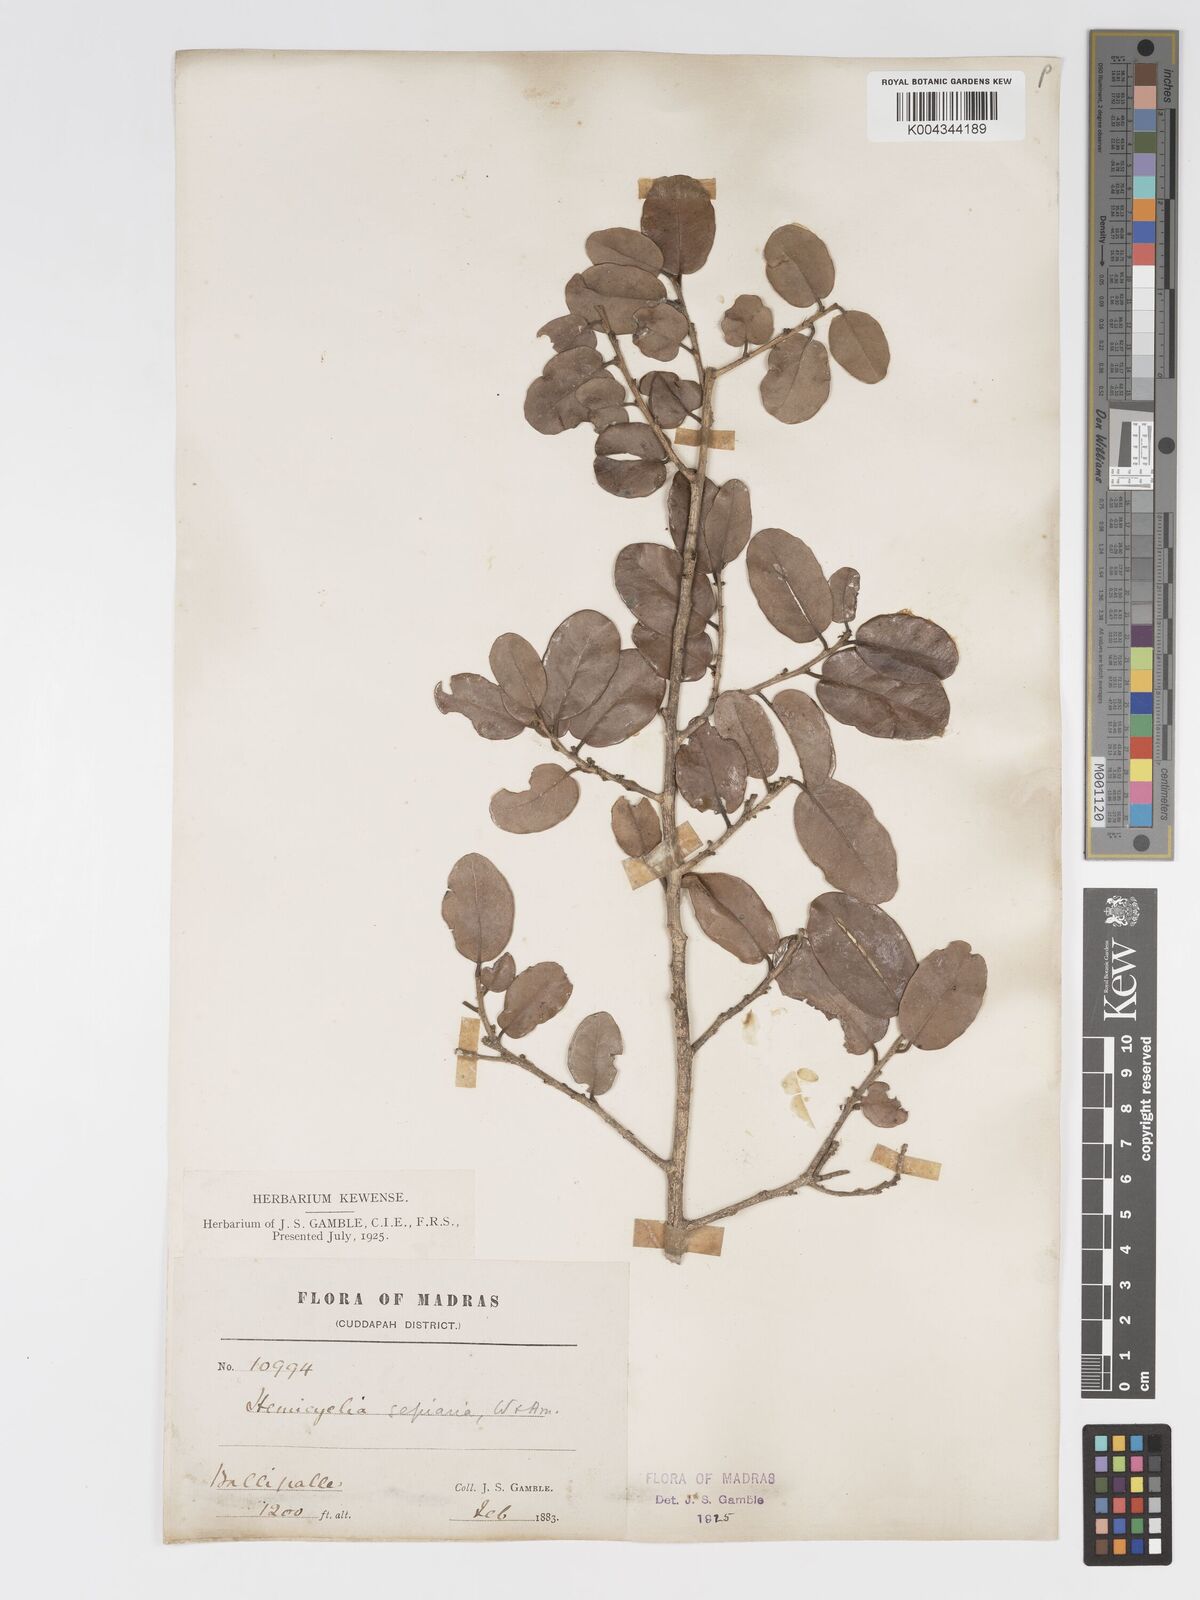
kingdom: Plantae
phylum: Tracheophyta
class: Magnoliopsida
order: Malpighiales
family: Putranjivaceae
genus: Drypetes
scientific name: Drypetes sepiaria
